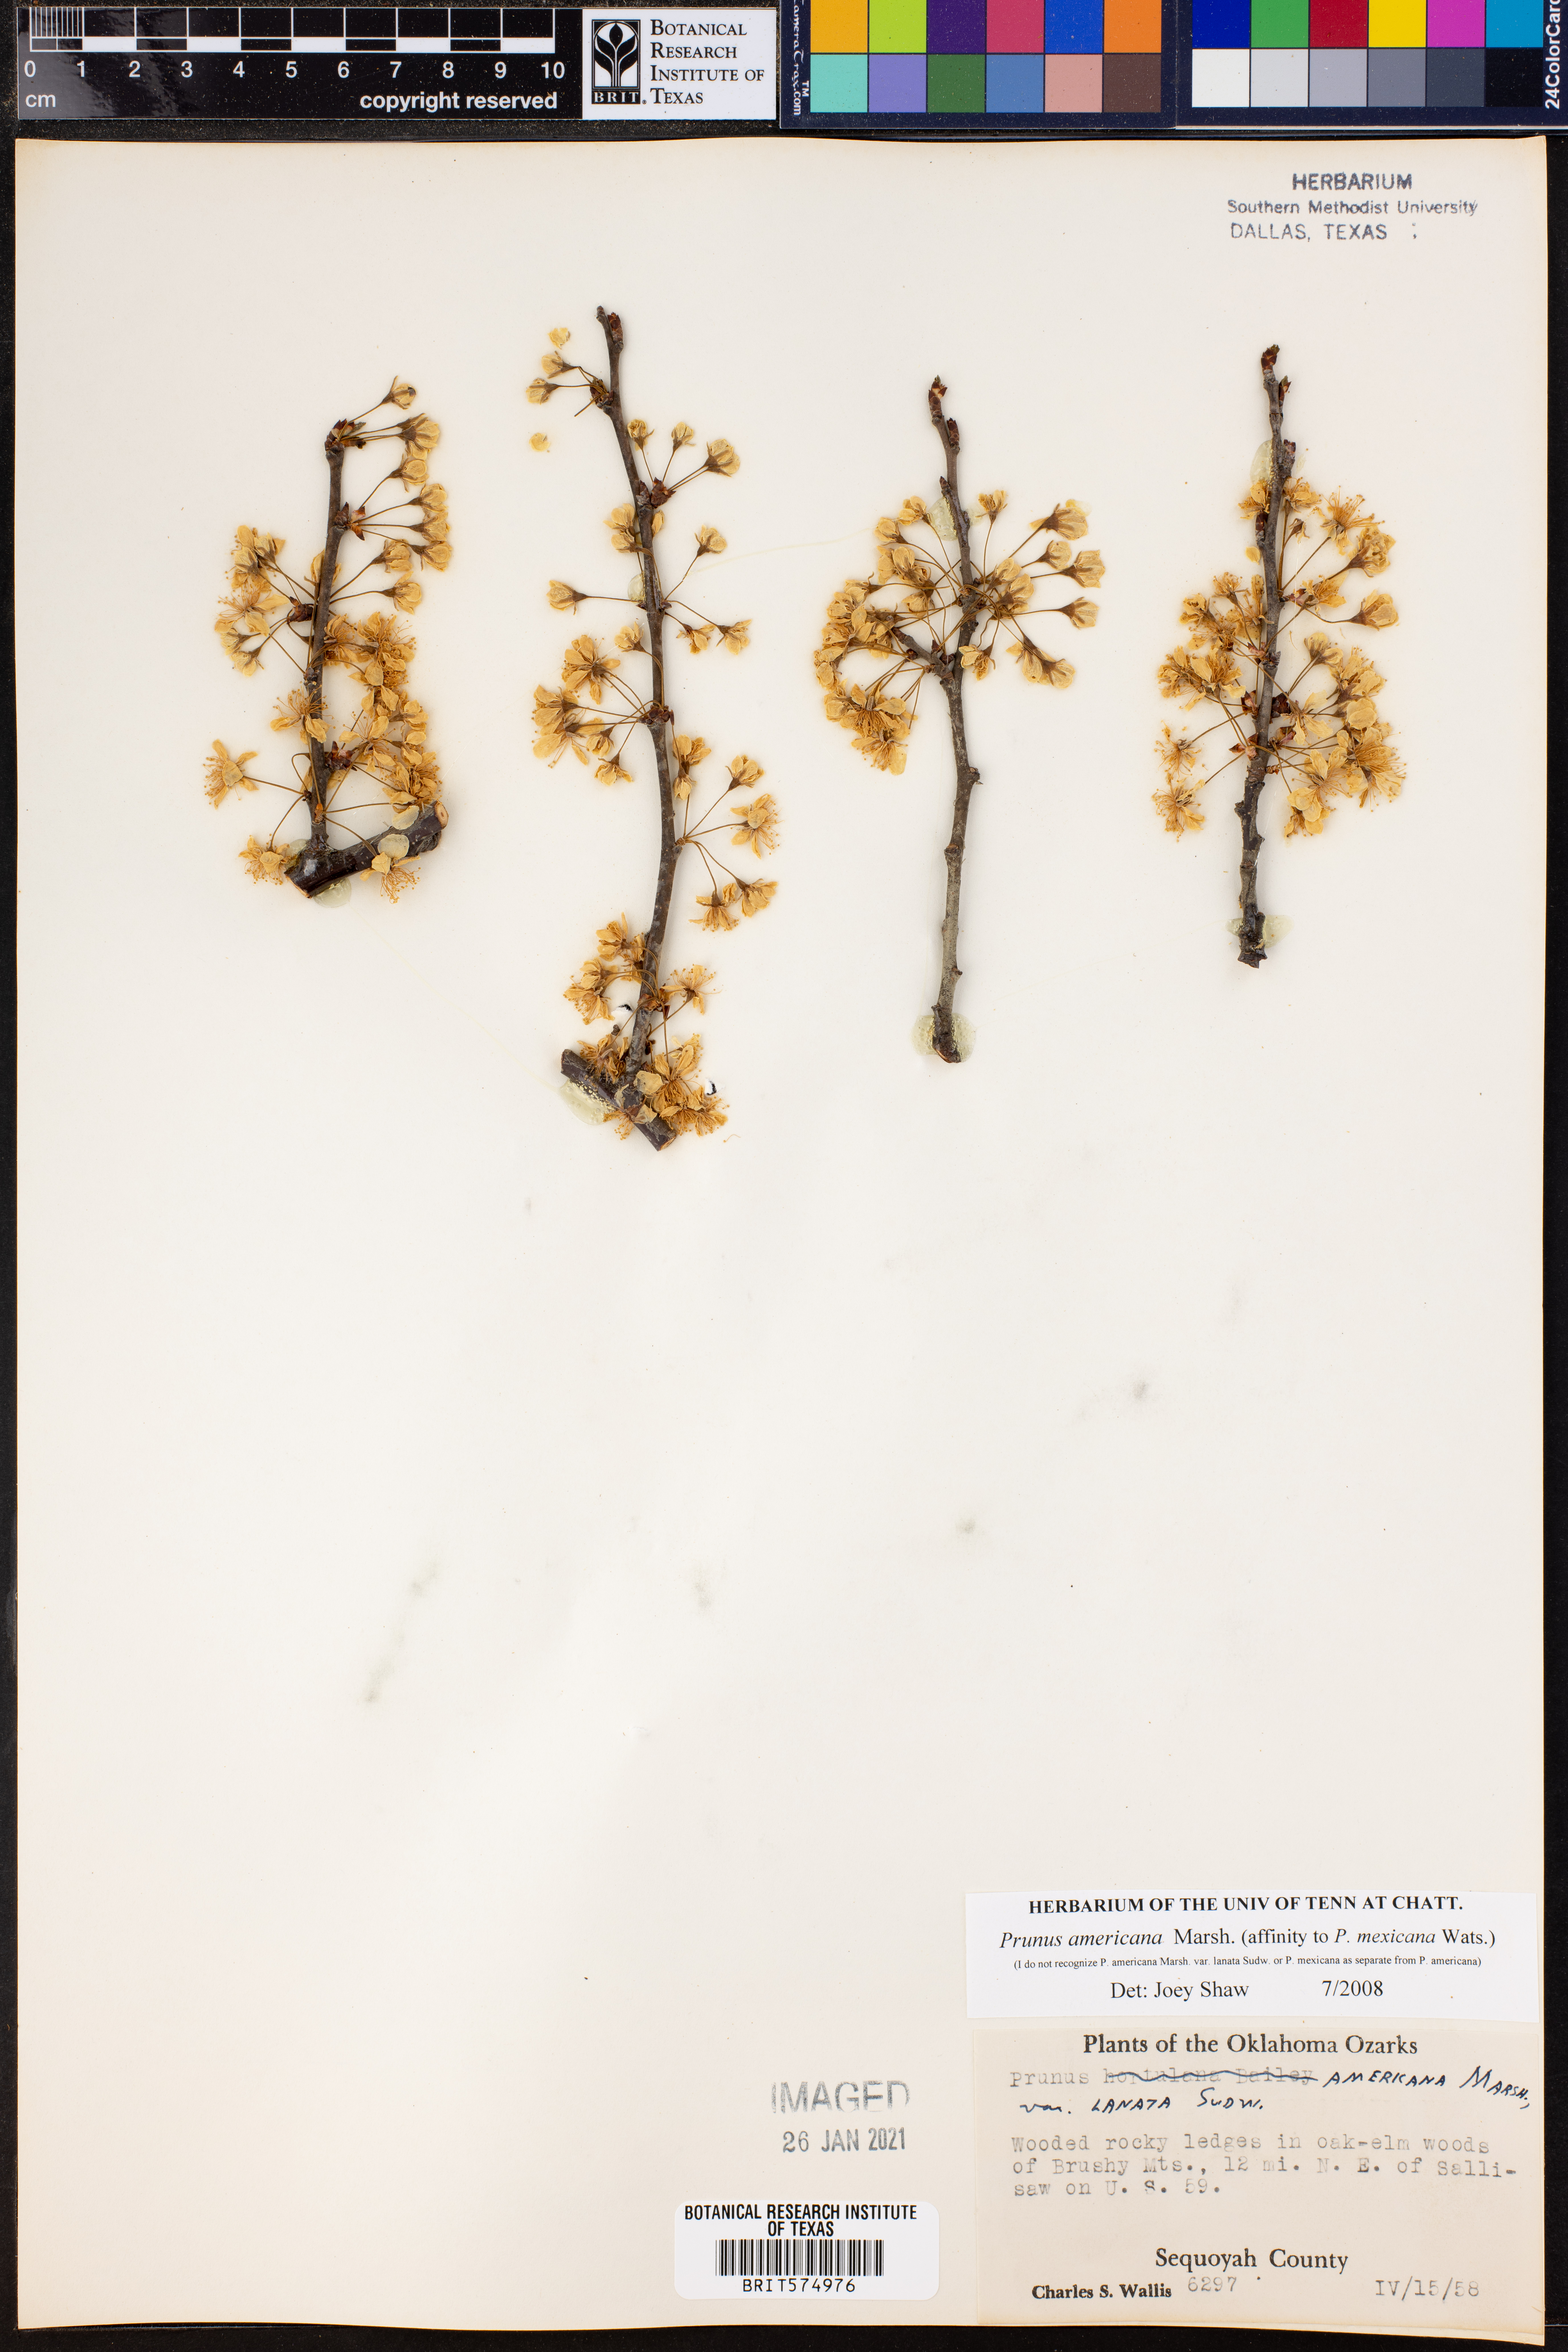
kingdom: Plantae
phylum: Tracheophyta
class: Magnoliopsida
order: Rosales
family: Rosaceae
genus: Prunus
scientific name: Prunus americana
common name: American plum
